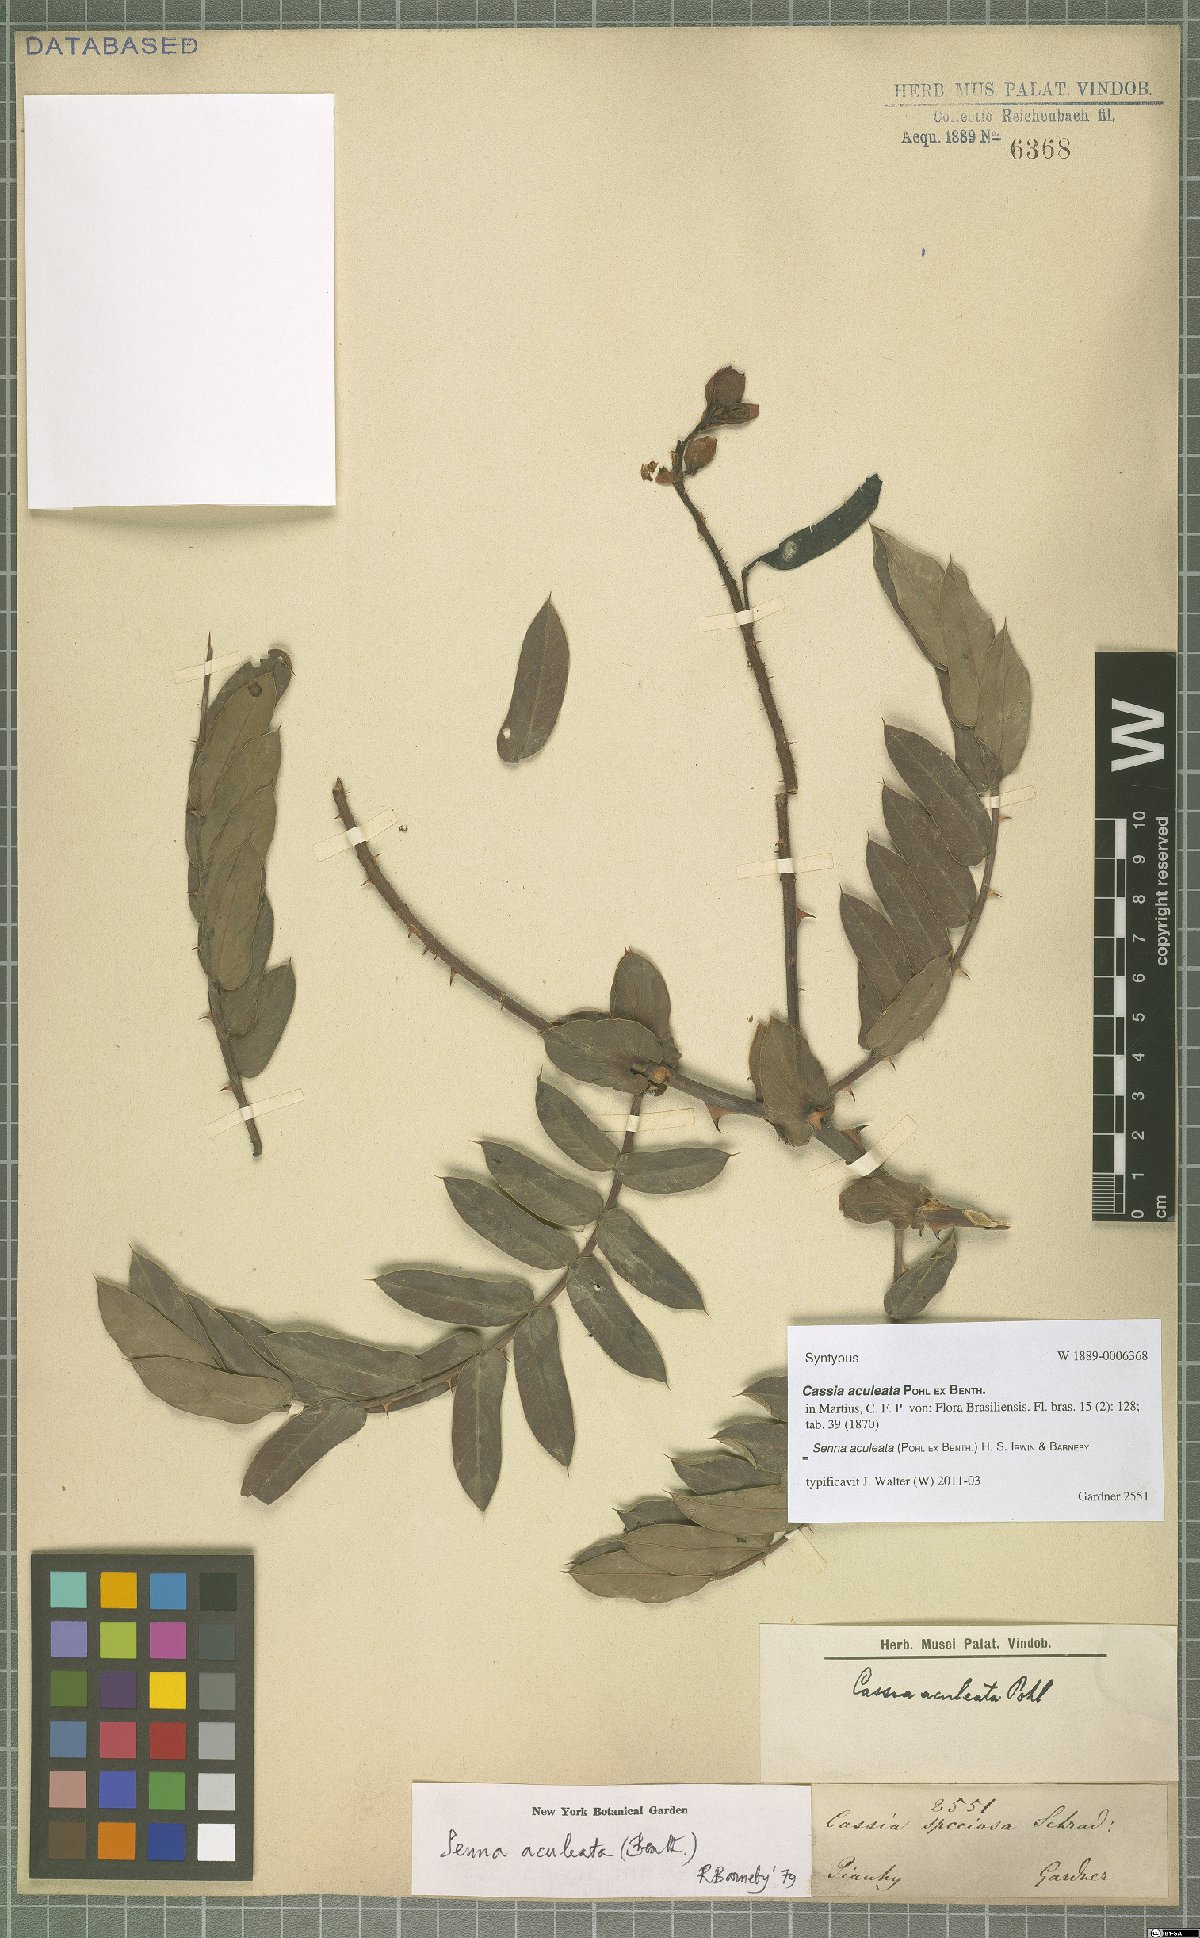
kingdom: Plantae
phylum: Tracheophyta
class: Magnoliopsida
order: Fabales
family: Fabaceae
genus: Senna
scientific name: Senna aculeata
